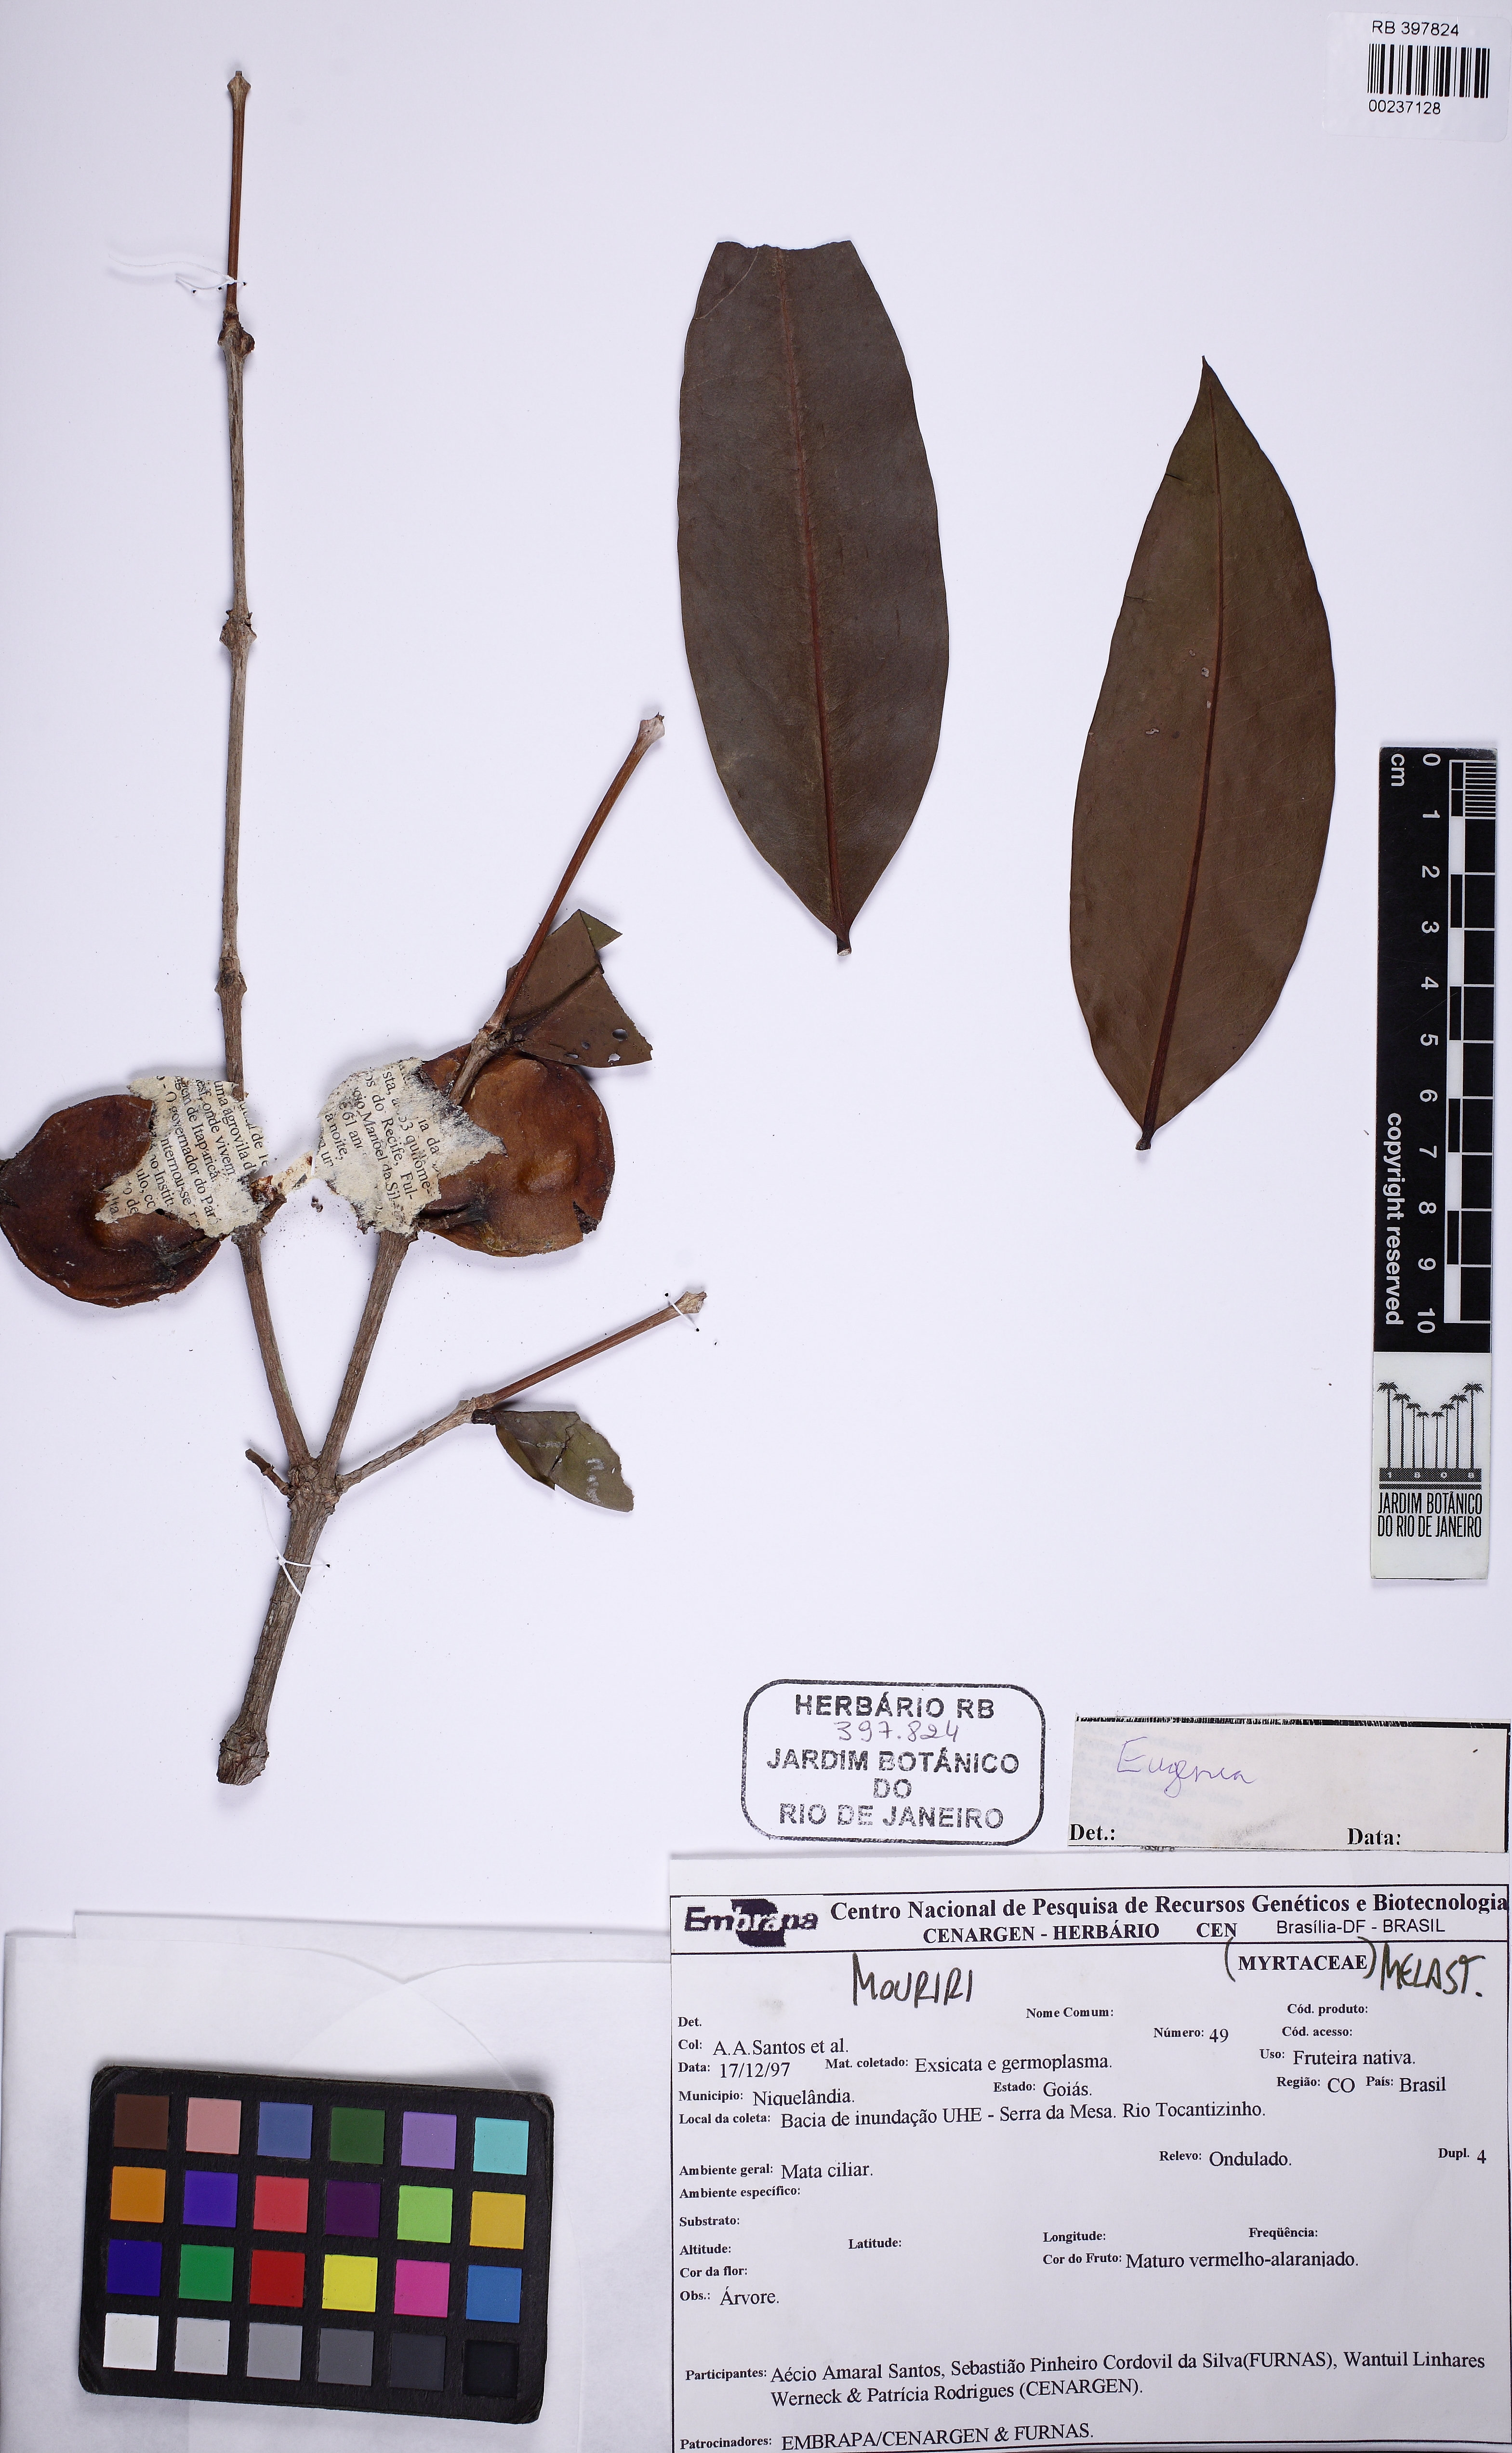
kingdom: Plantae
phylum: Tracheophyta
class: Magnoliopsida
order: Myrtales
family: Melastomataceae
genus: Mouriri
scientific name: Mouriri glazioviana
